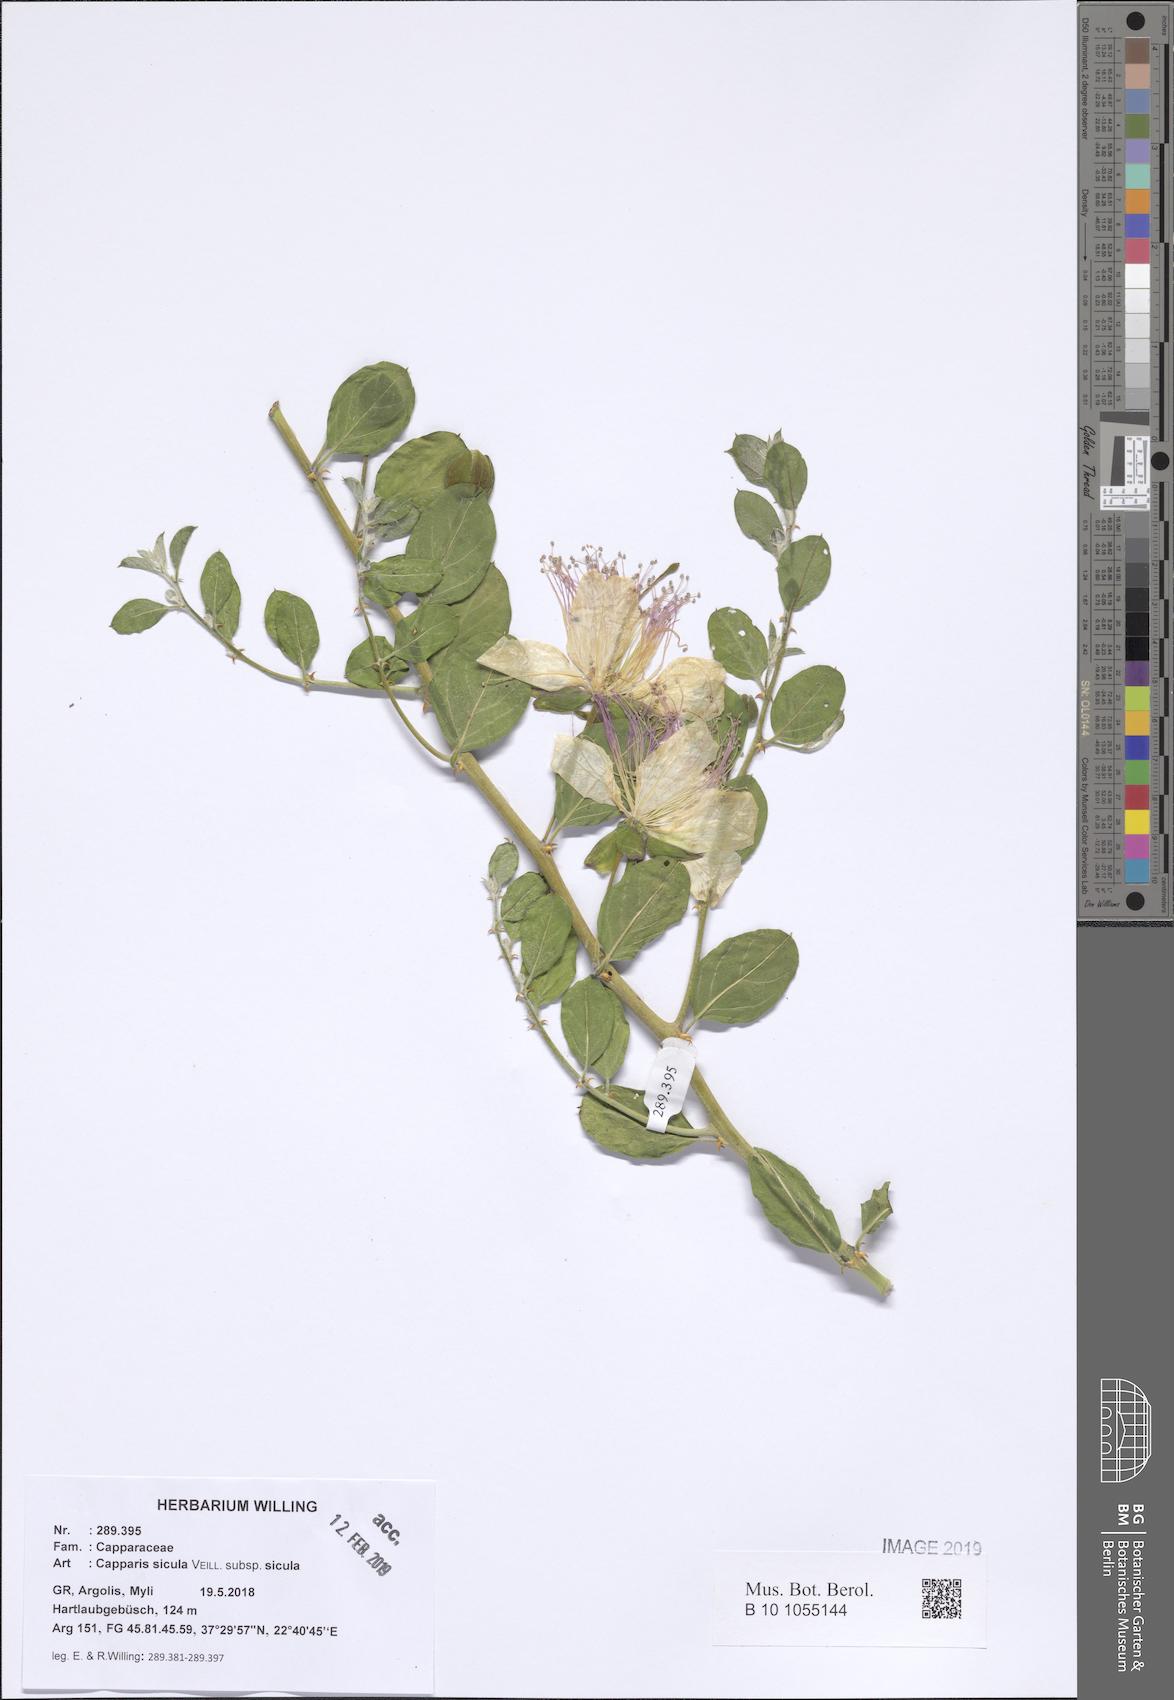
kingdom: Plantae
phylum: Tracheophyta
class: Magnoliopsida
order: Brassicales
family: Capparaceae
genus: Capparis
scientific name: Capparis spinosa
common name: Caper
